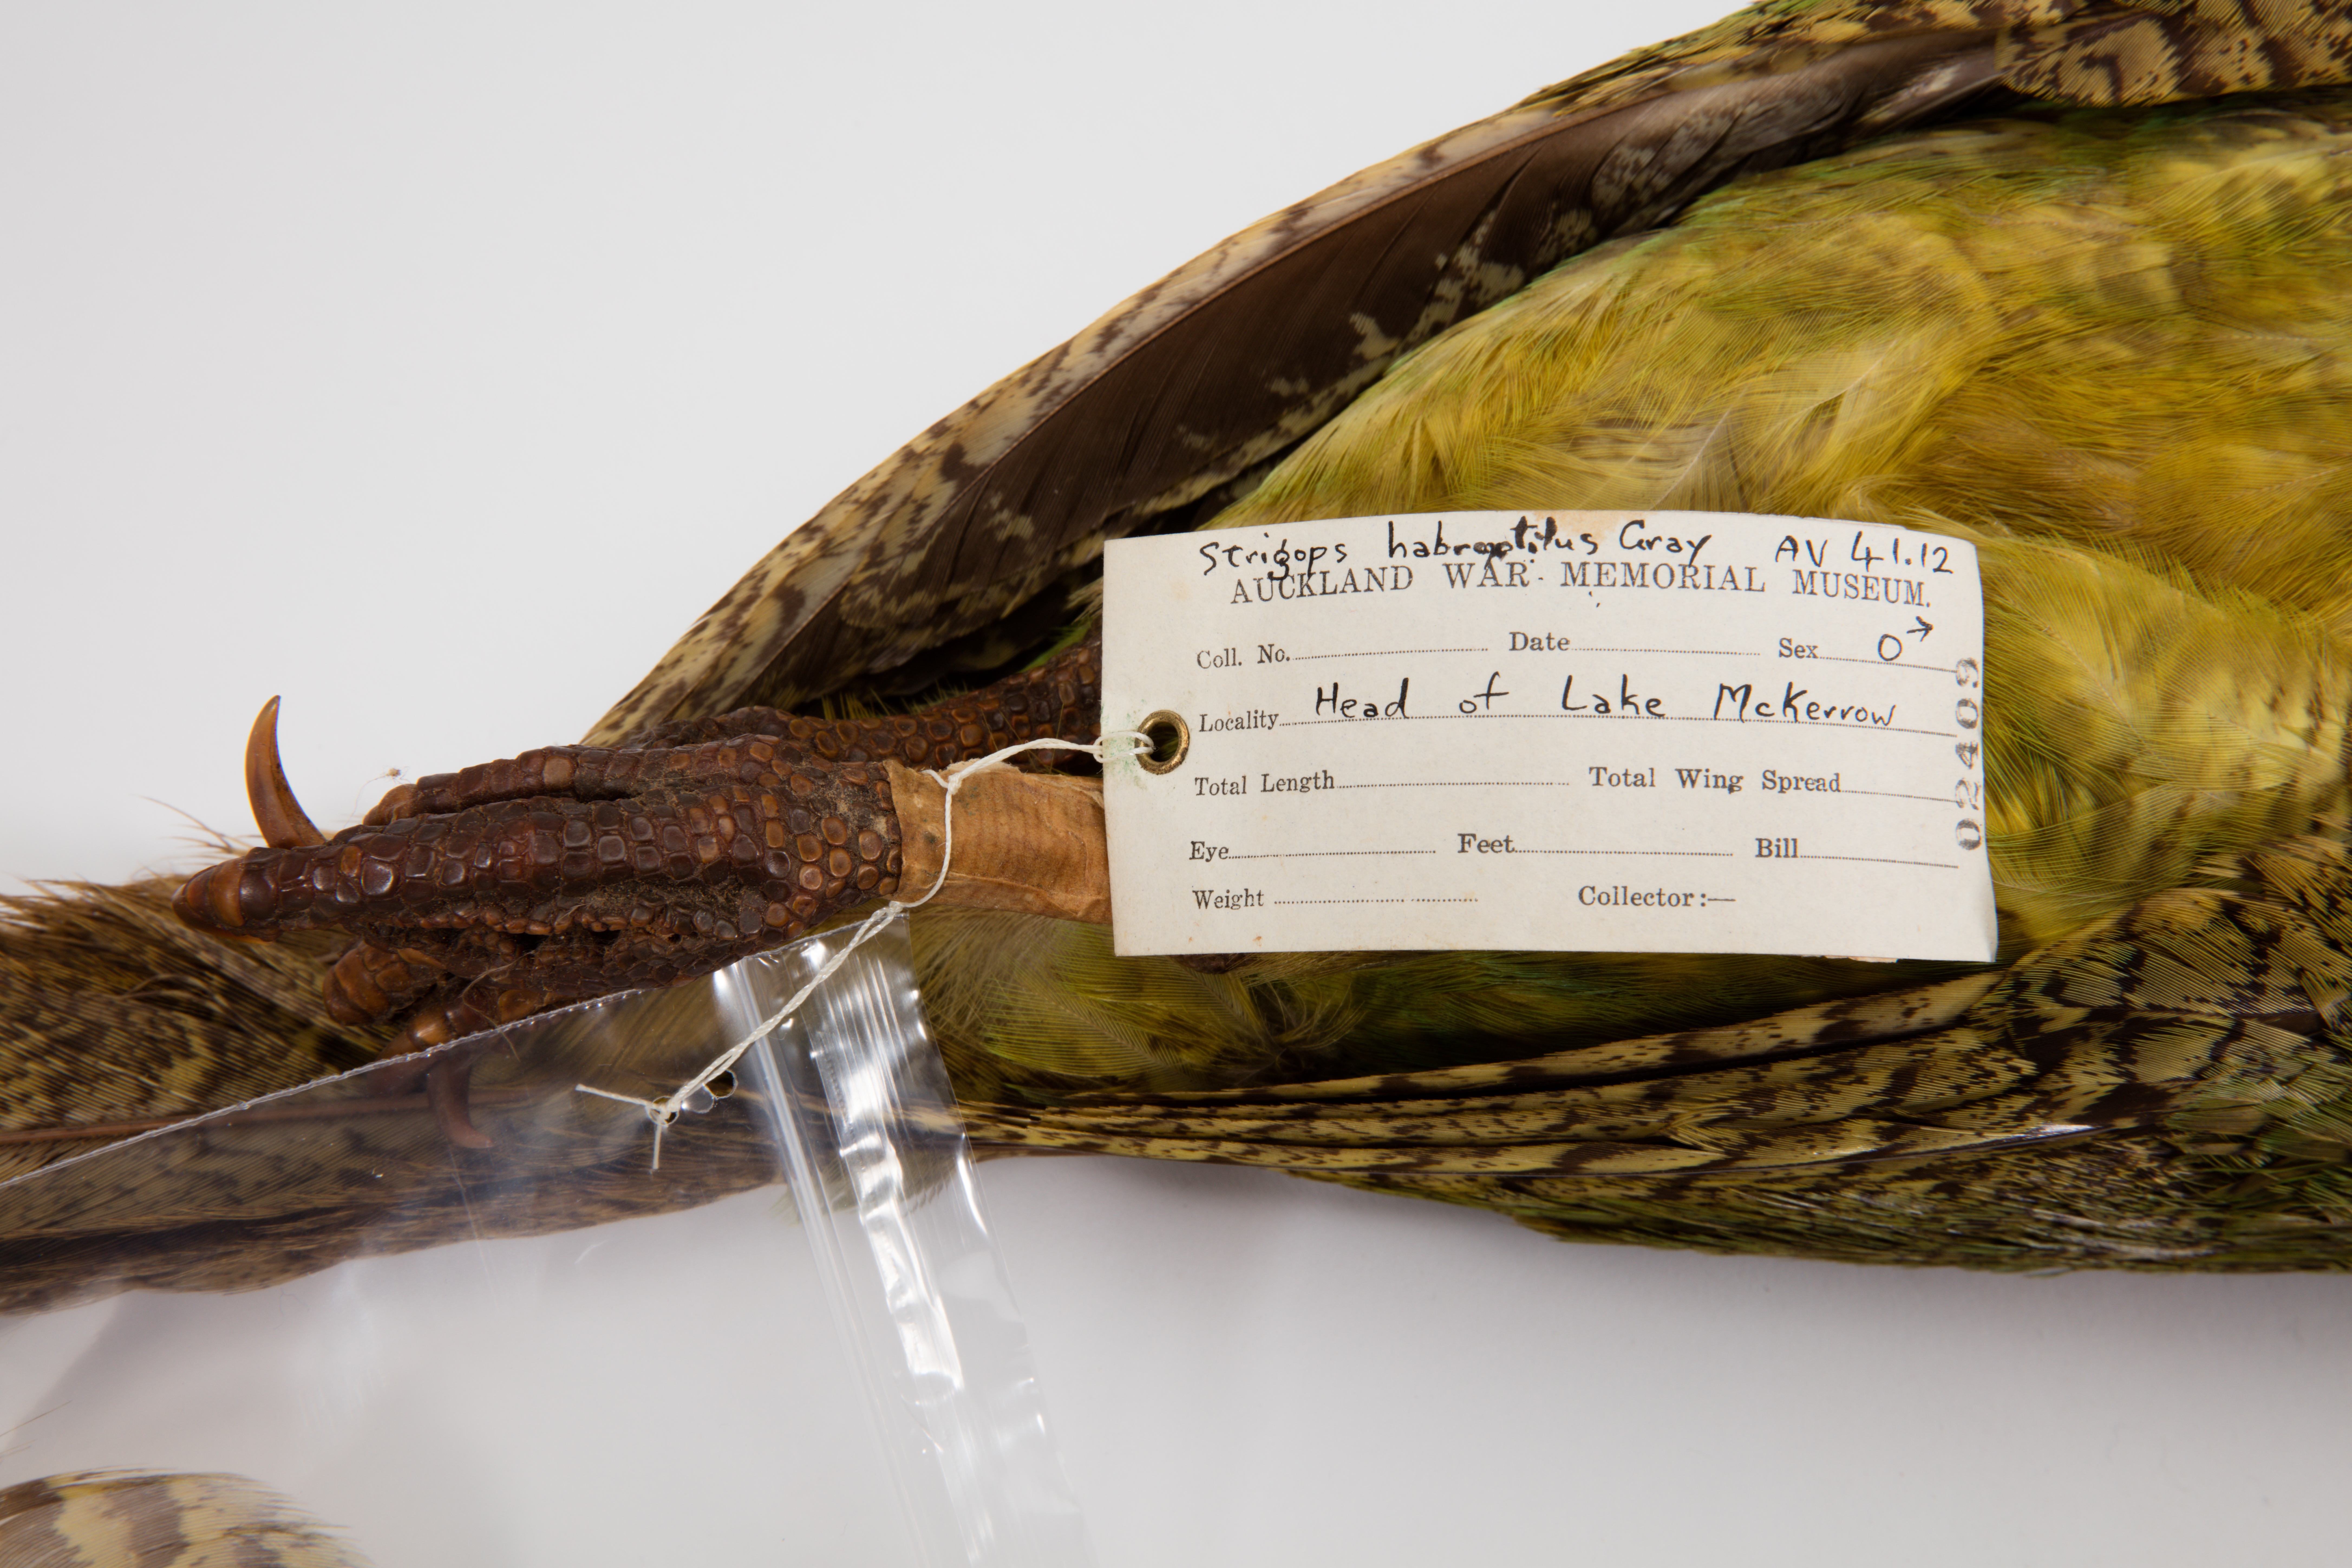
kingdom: Animalia
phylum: Chordata
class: Aves
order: Psittaciformes
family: Psittacidae
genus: Strigops
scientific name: Strigops habroptila
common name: Kakapo
